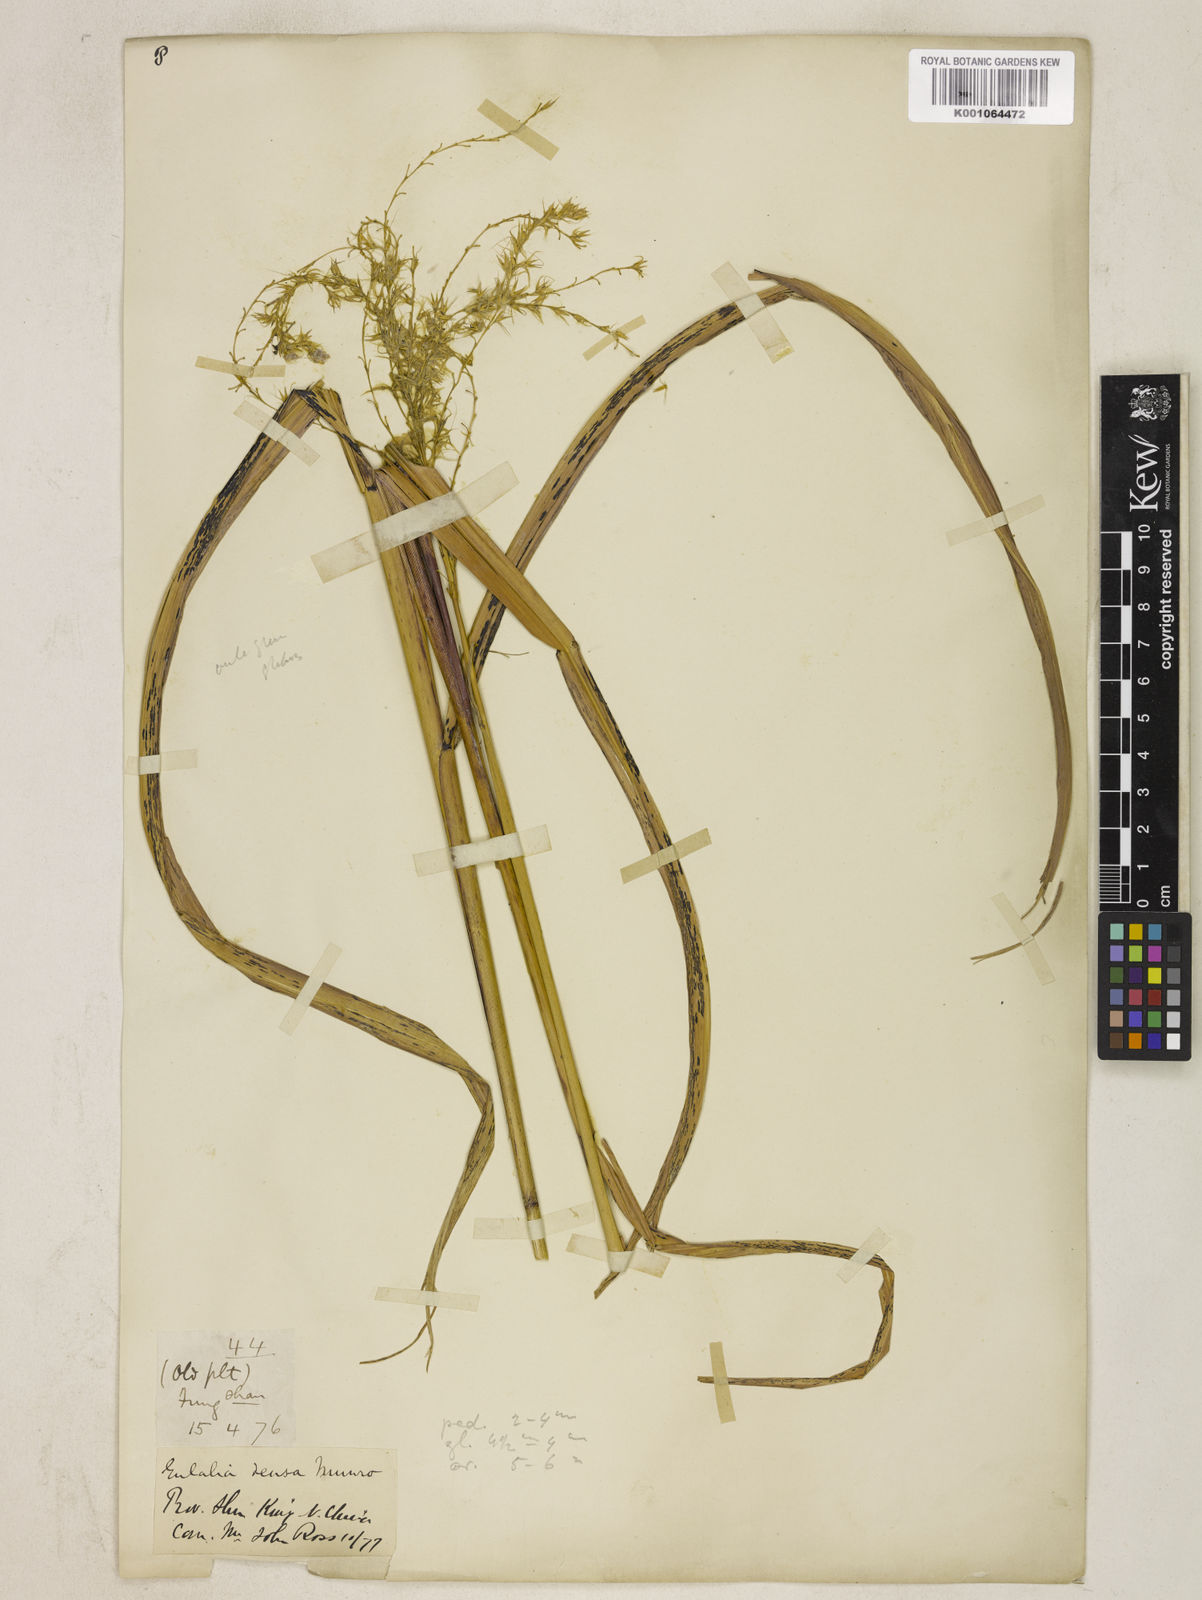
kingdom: Plantae
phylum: Tracheophyta
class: Liliopsida
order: Poales
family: Poaceae
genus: Miscanthus
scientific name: Miscanthus sinensis
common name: Chinese silvergrass
